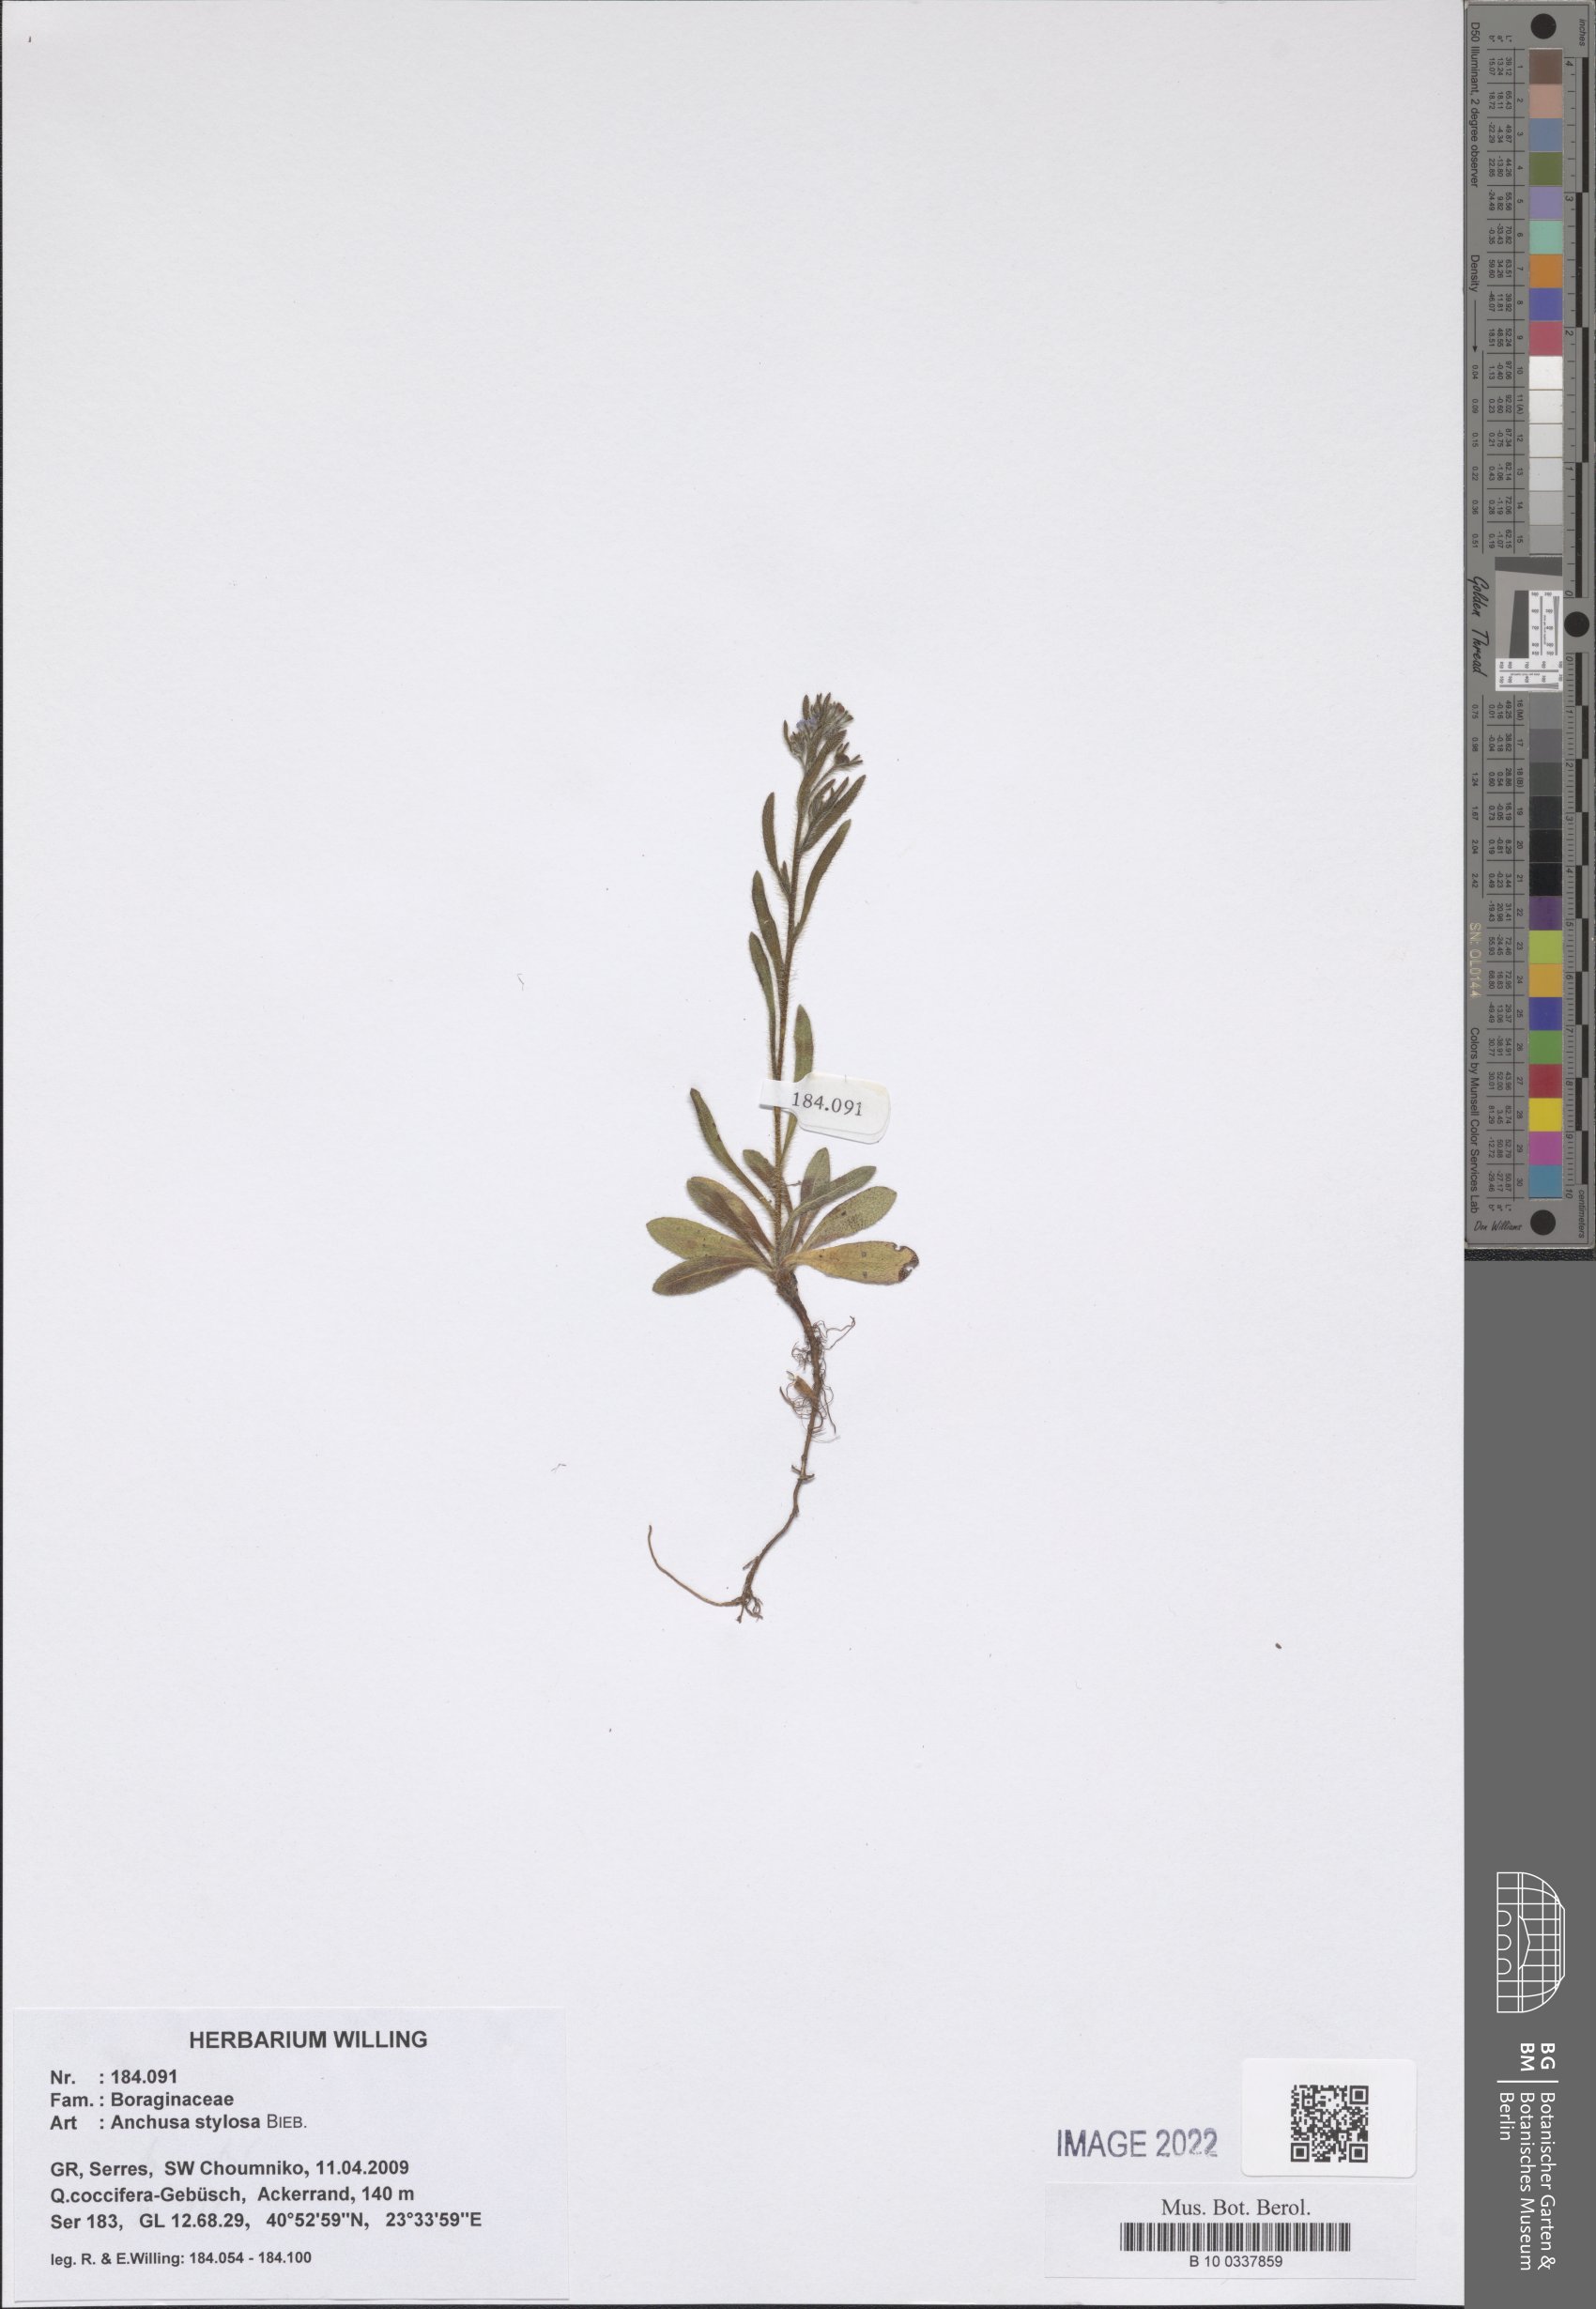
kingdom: Plantae
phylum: Tracheophyta
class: Magnoliopsida
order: Boraginales
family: Boraginaceae
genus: Anchusa
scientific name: Anchusa stylosa
